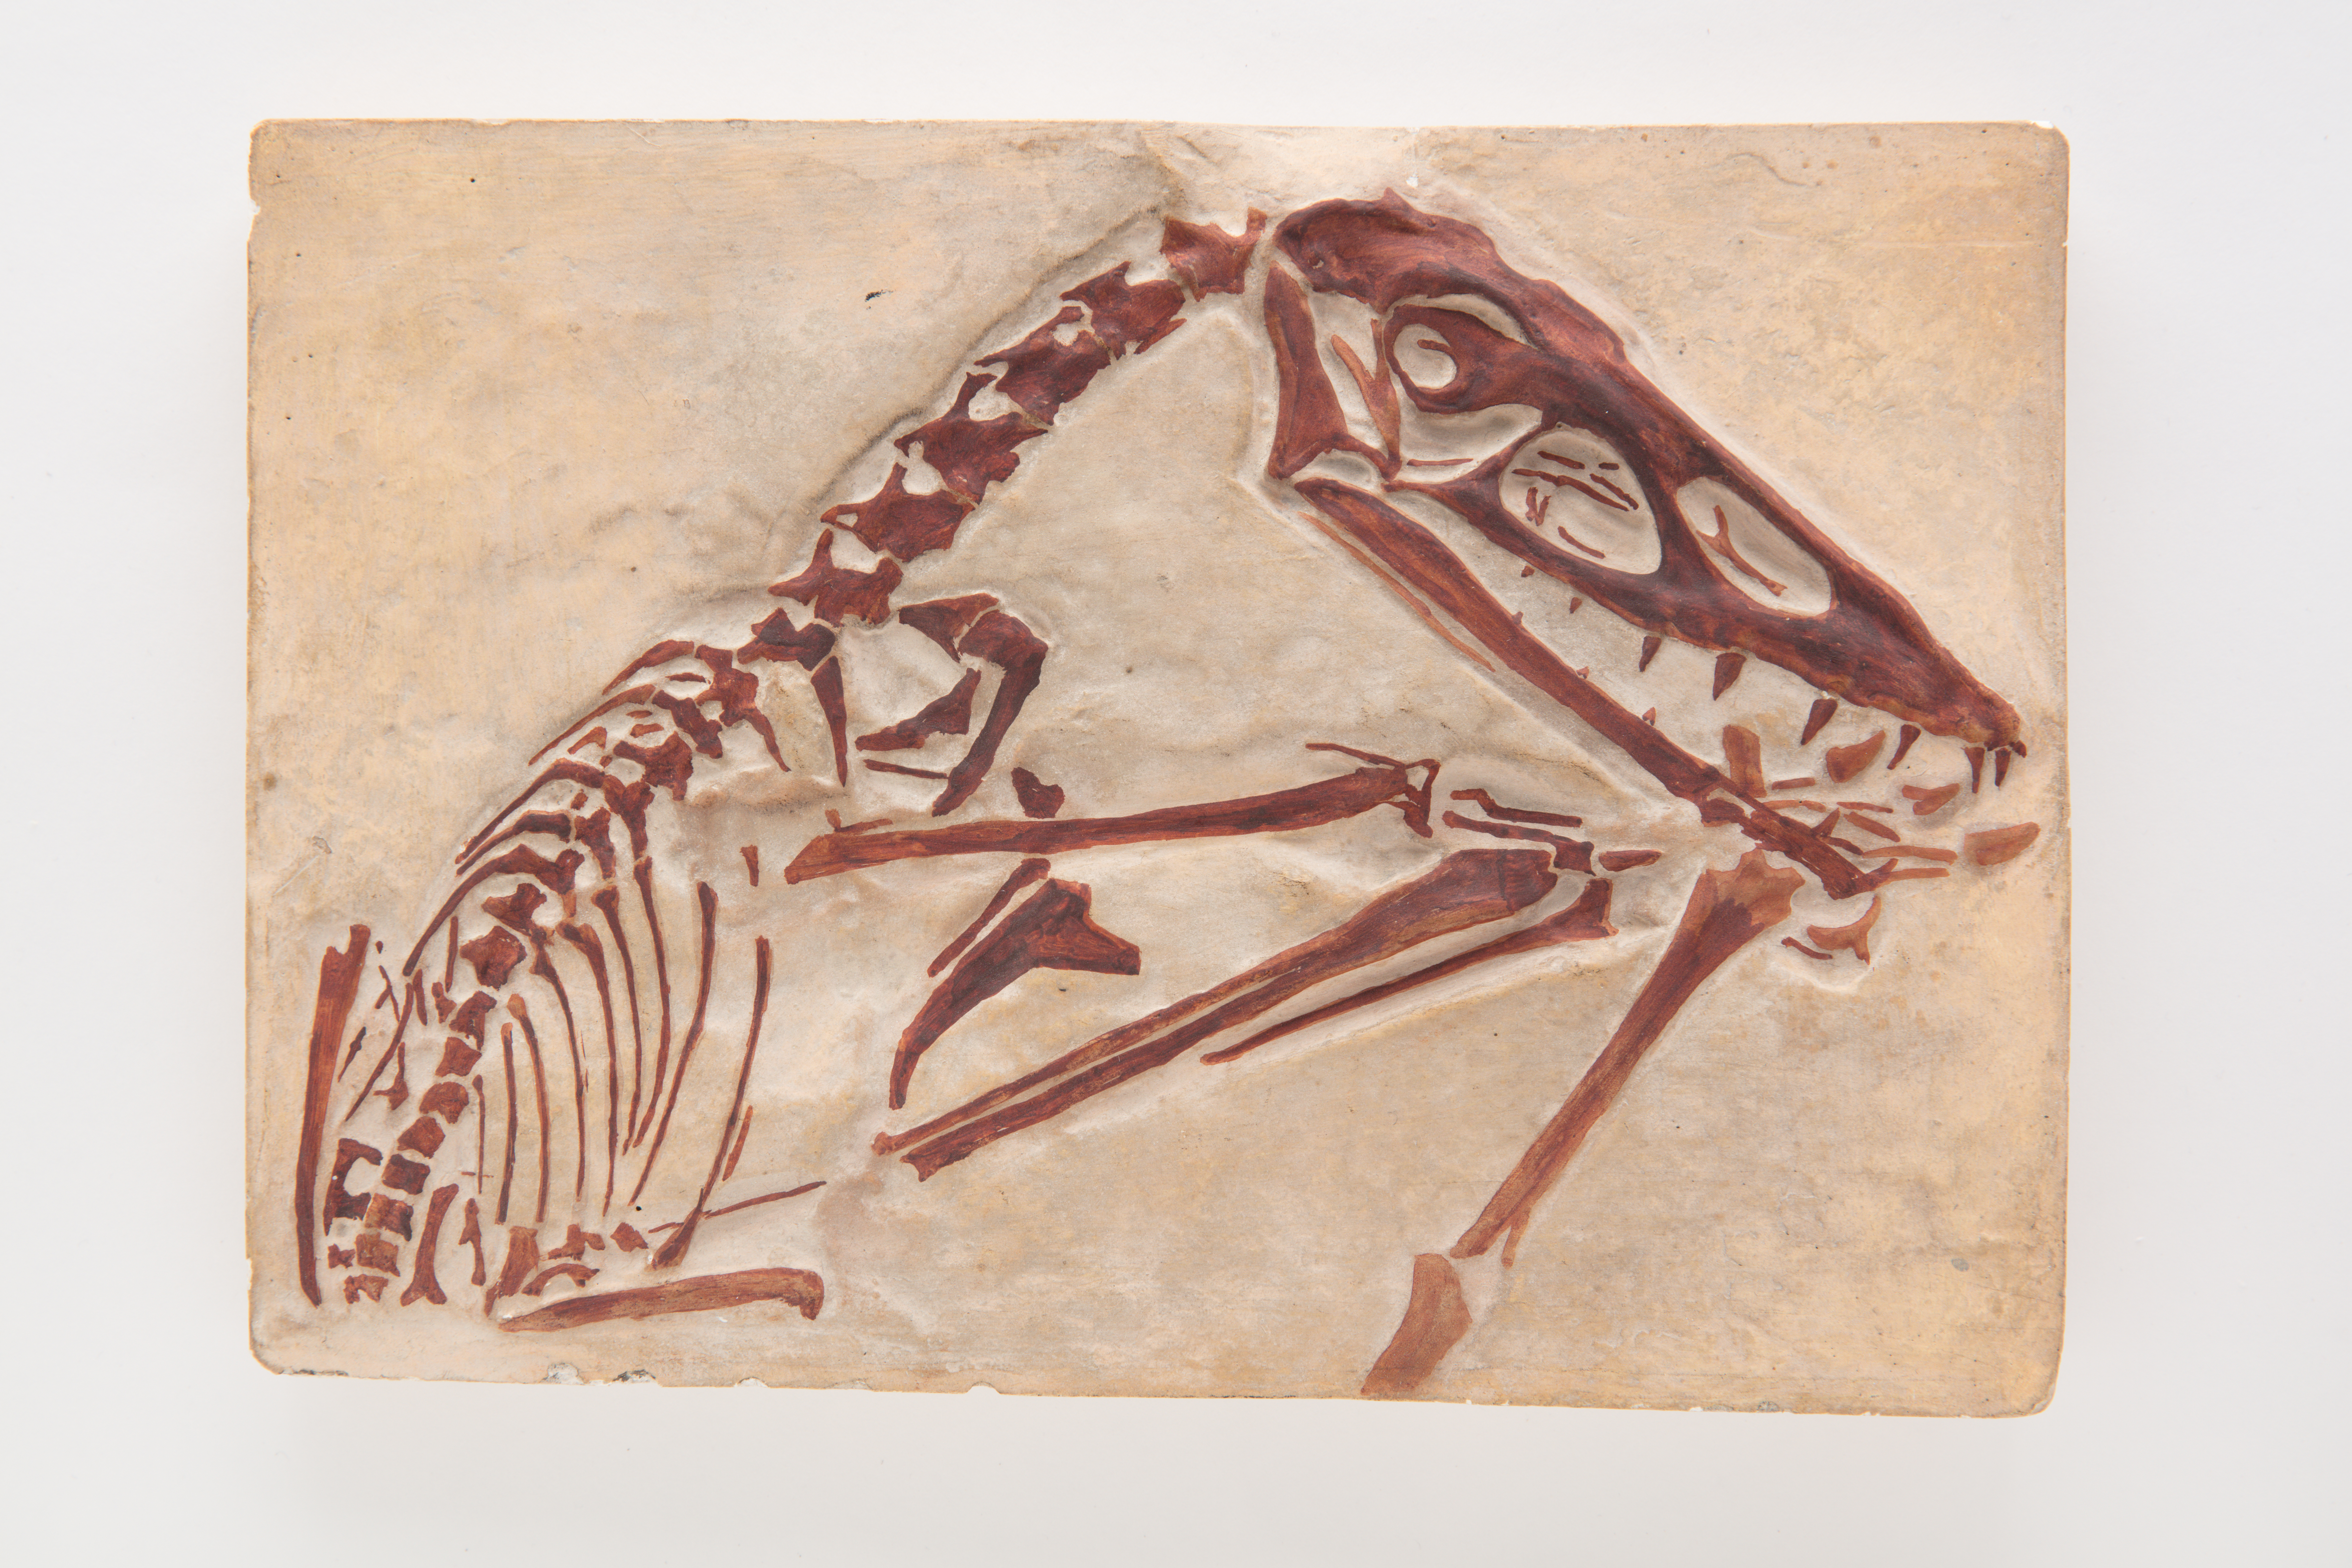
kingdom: Animalia
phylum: Chordata
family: Rhamphorhynchidae
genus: Scaphognathus
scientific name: Scaphognathus Pterodactylus crassirostris
